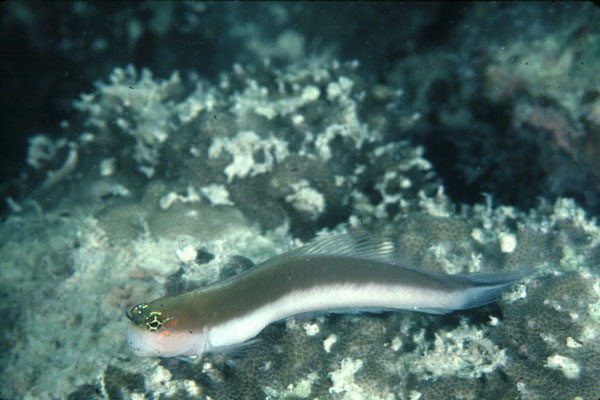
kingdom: Animalia
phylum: Chordata
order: Perciformes
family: Blenniidae
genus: Ecsenius
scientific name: Ecsenius pulcher
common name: Gulf blenny
